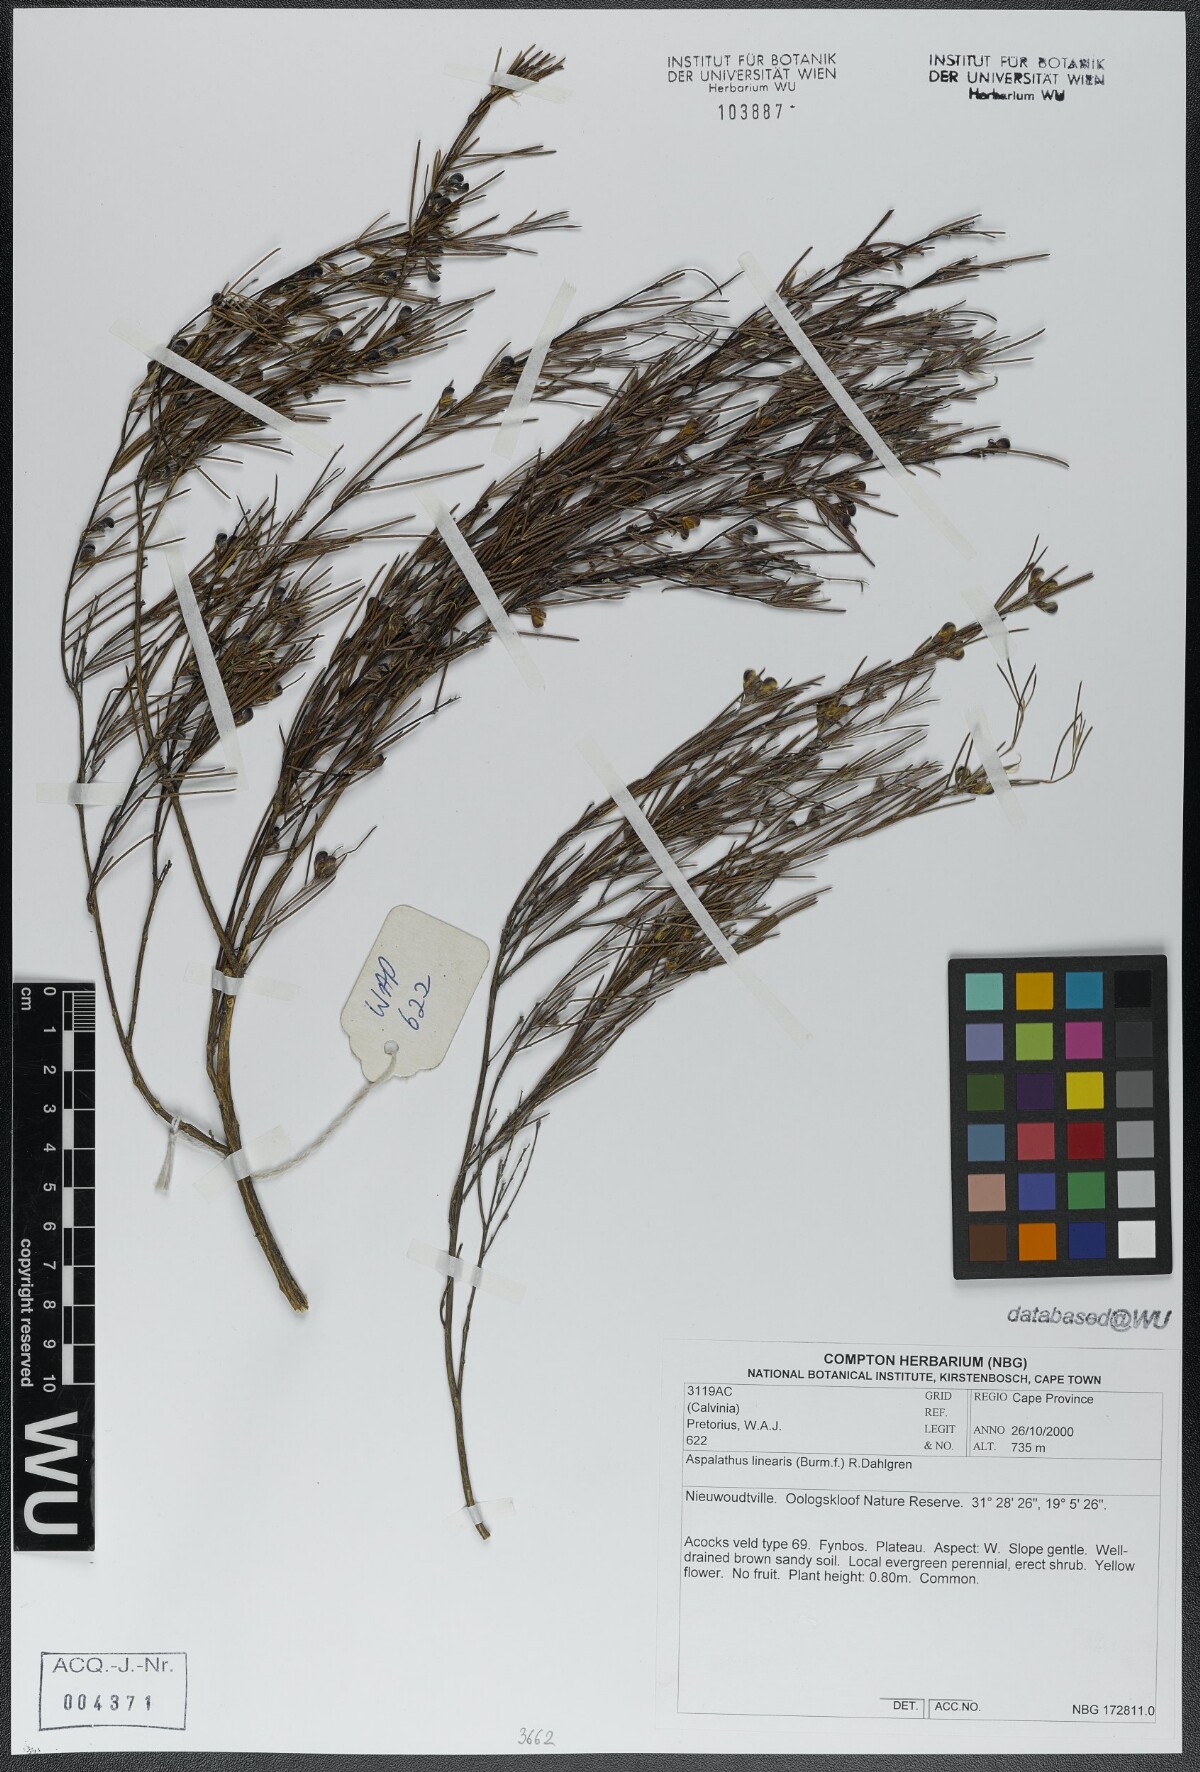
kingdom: Plantae
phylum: Tracheophyta
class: Magnoliopsida
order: Fabales
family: Fabaceae
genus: Aspalathus
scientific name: Aspalathus linearis
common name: Rooibos-tea
